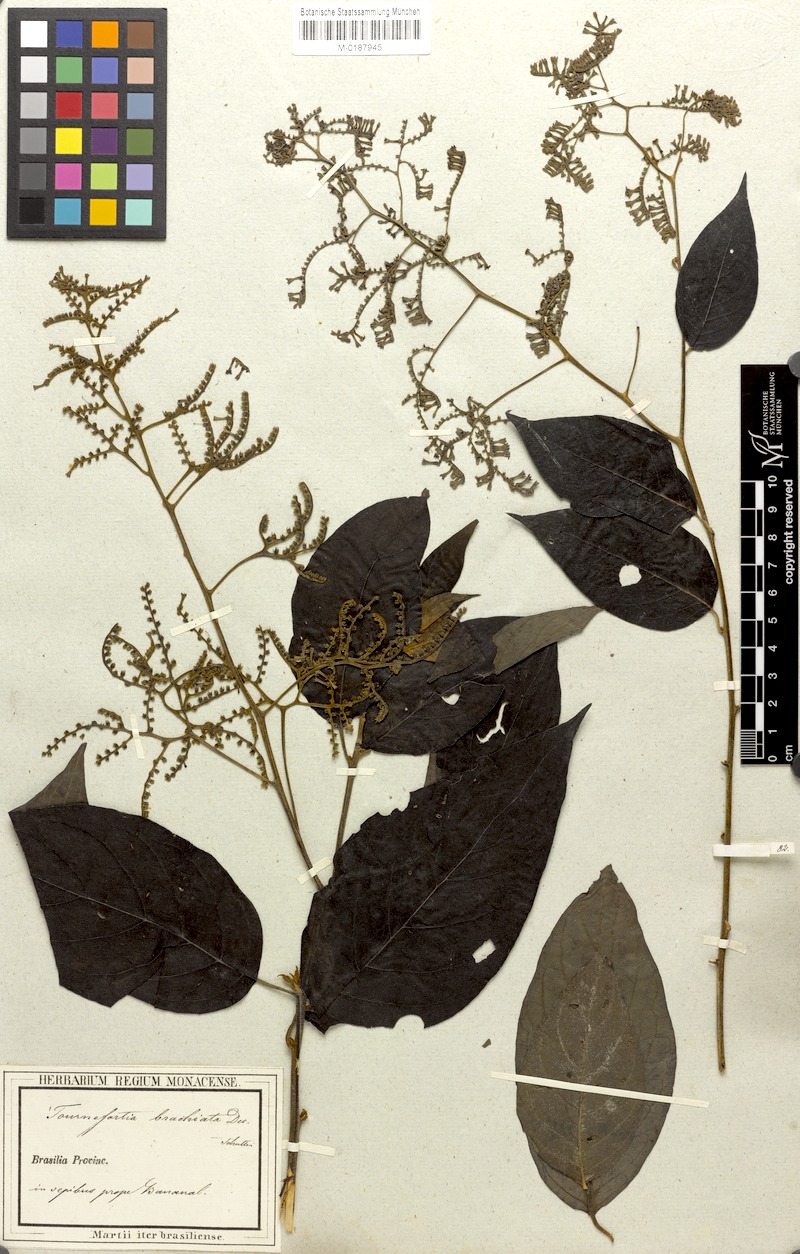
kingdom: Plantae
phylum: Tracheophyta
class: Magnoliopsida
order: Boraginales
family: Heliotropiaceae
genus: Myriopus
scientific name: Myriopus paniculatus
